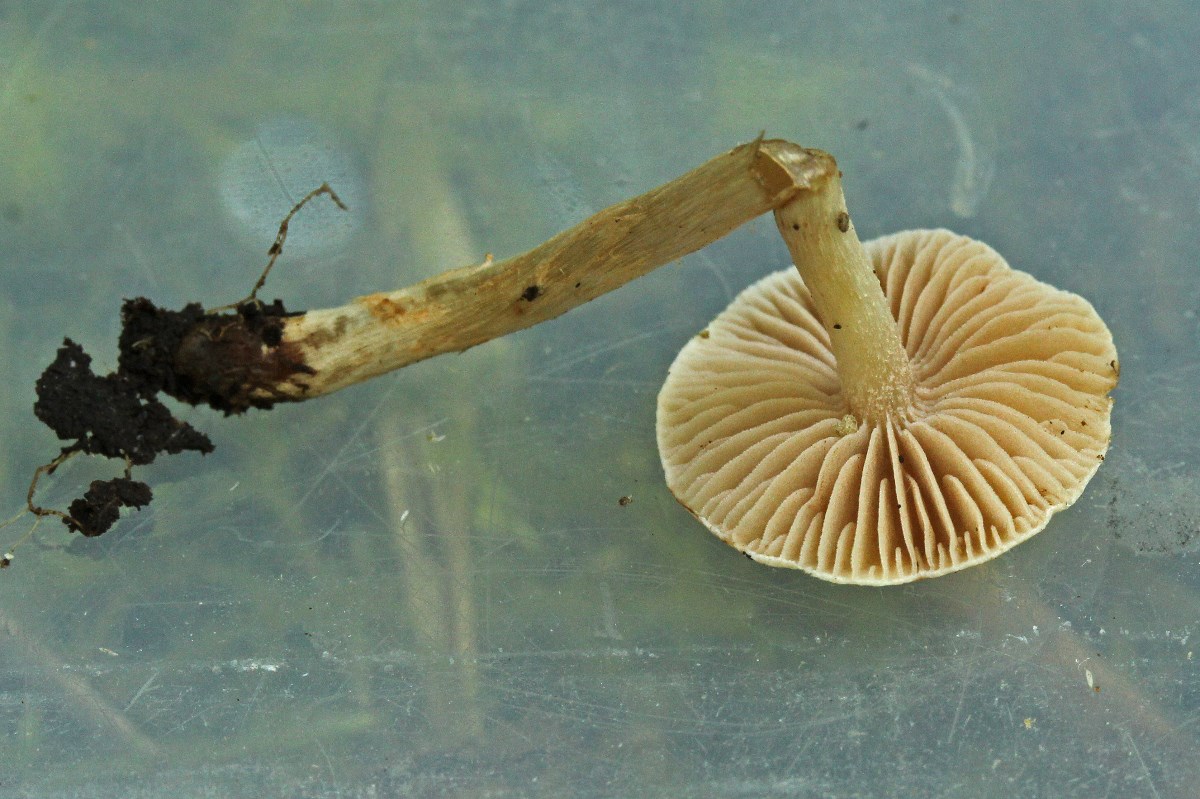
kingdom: Fungi
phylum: Basidiomycota
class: Agaricomycetes
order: Agaricales
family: Hymenogastraceae
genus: Hebeloma
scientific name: Hebeloma
